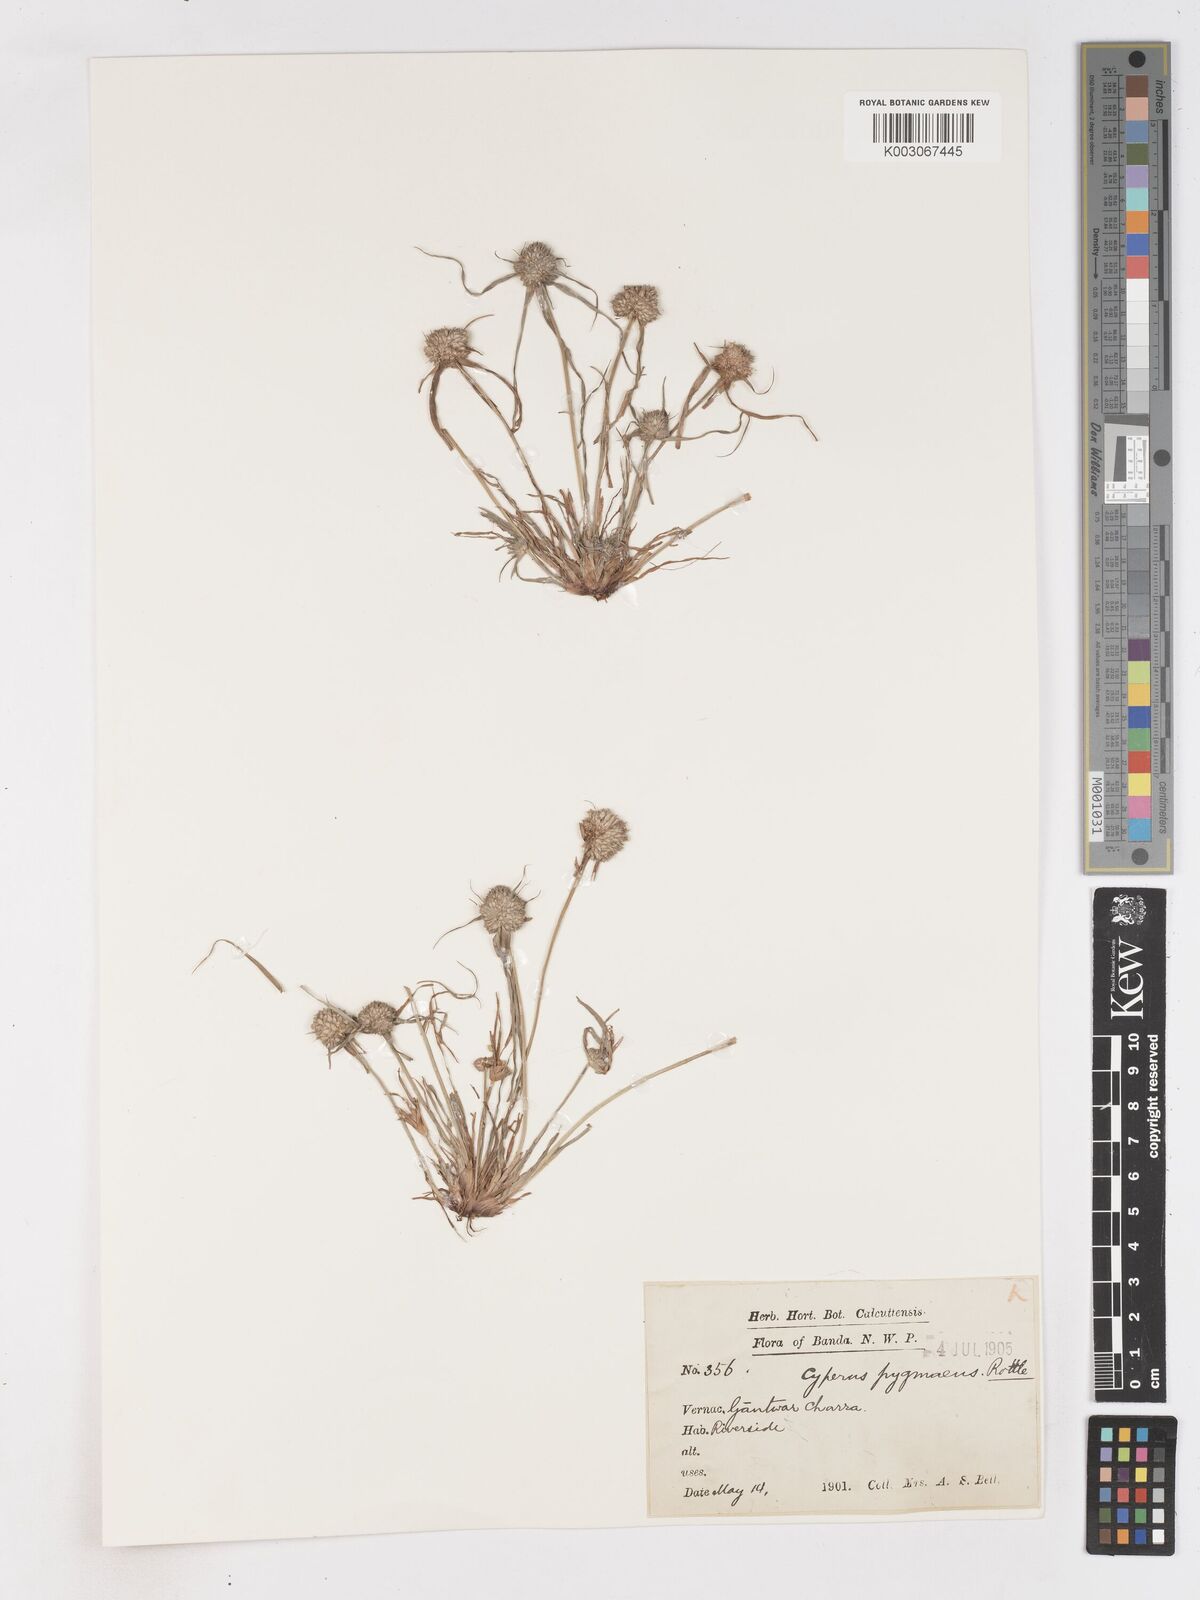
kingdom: Plantae
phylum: Tracheophyta
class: Liliopsida
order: Poales
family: Cyperaceae
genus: Cyperus
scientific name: Cyperus michelianus
